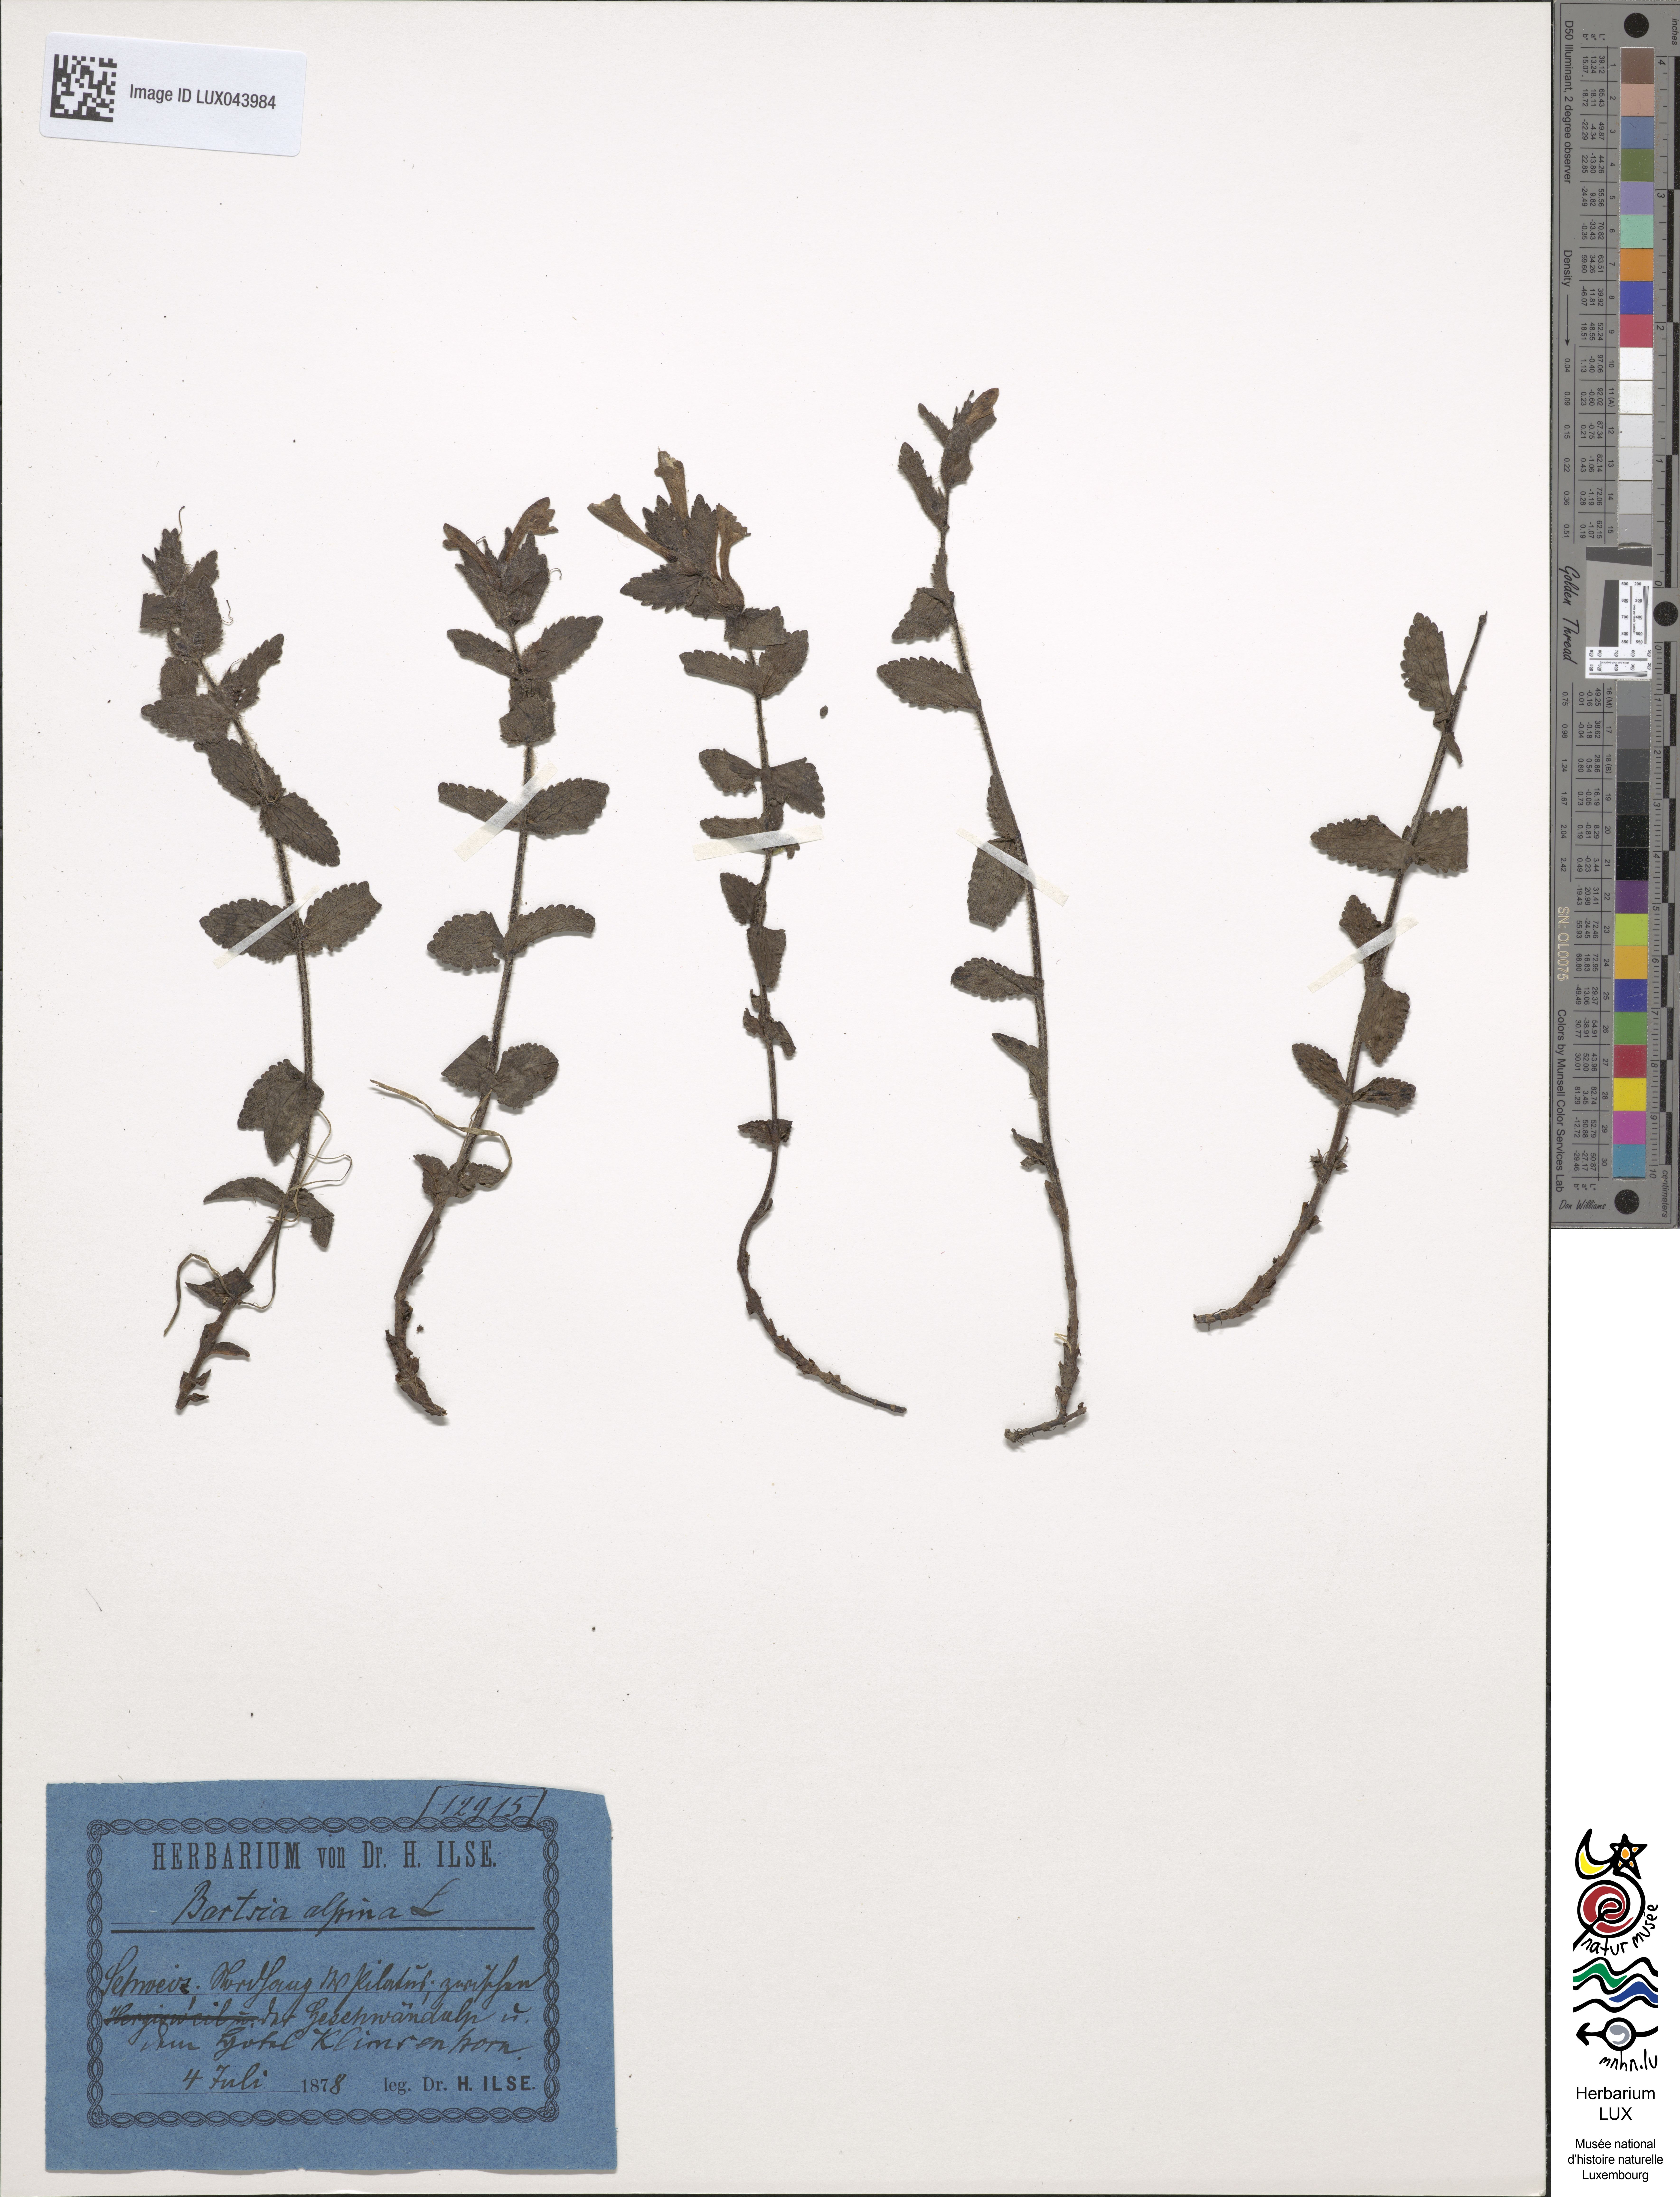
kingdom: Plantae
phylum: Tracheophyta
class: Magnoliopsida
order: Lamiales
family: Orobanchaceae
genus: Bartsia
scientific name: Bartsia alpina
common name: Alpine bartsia
